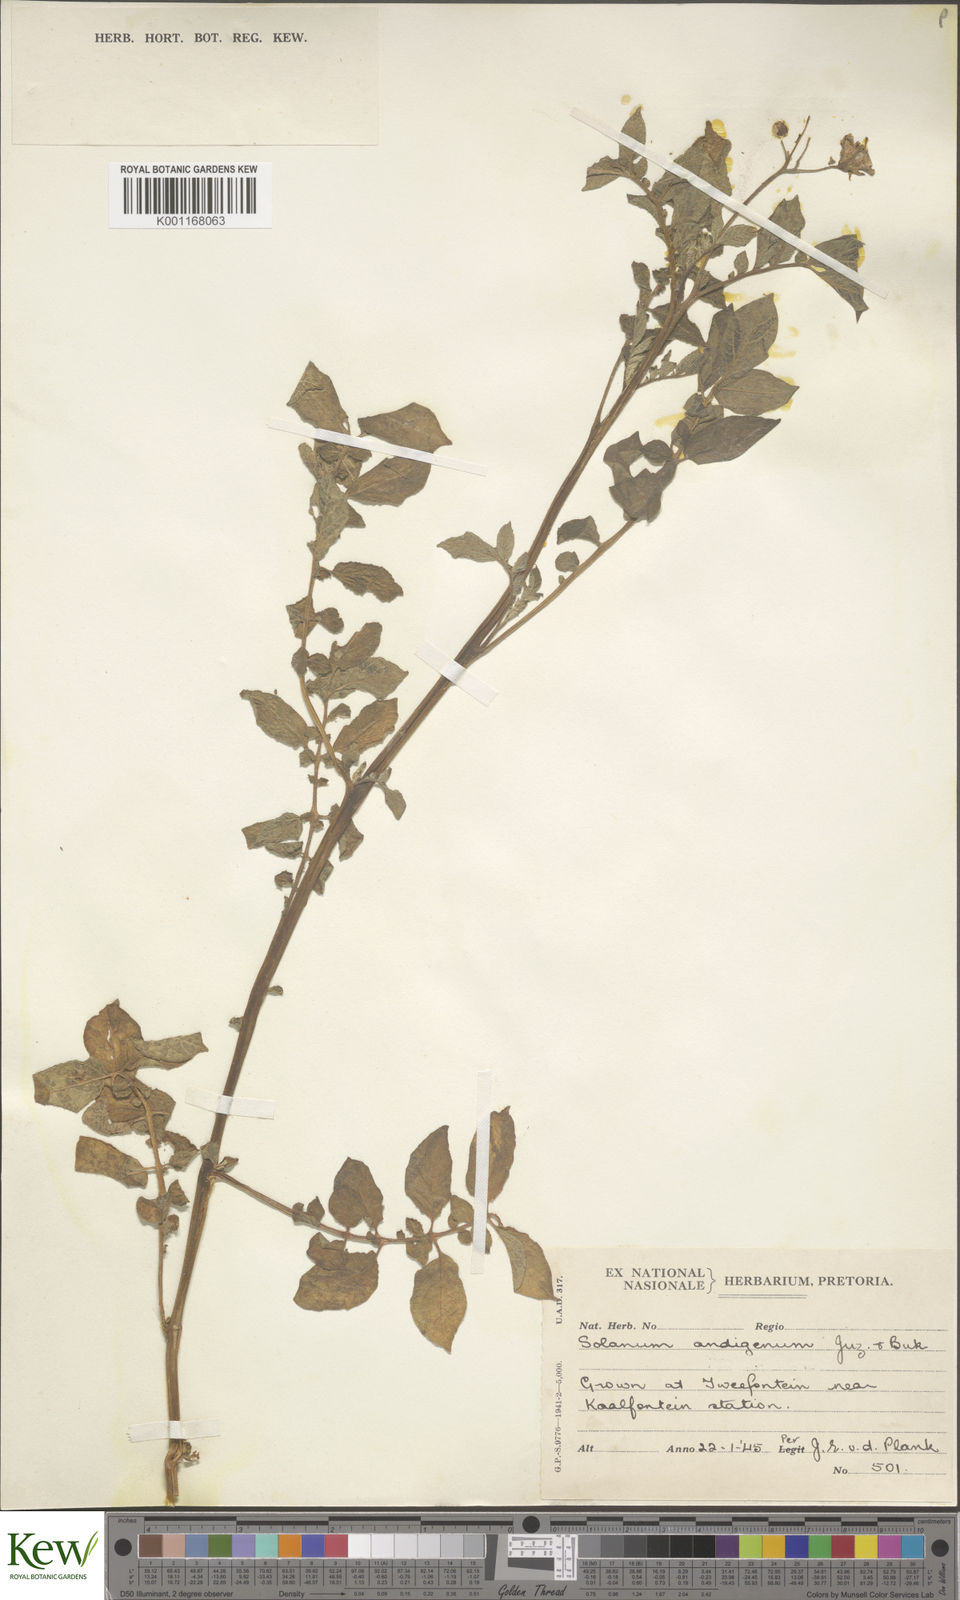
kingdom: Plantae
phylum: Tracheophyta
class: Magnoliopsida
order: Solanales
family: Solanaceae
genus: Solanum
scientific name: Solanum alternatopinnatum
